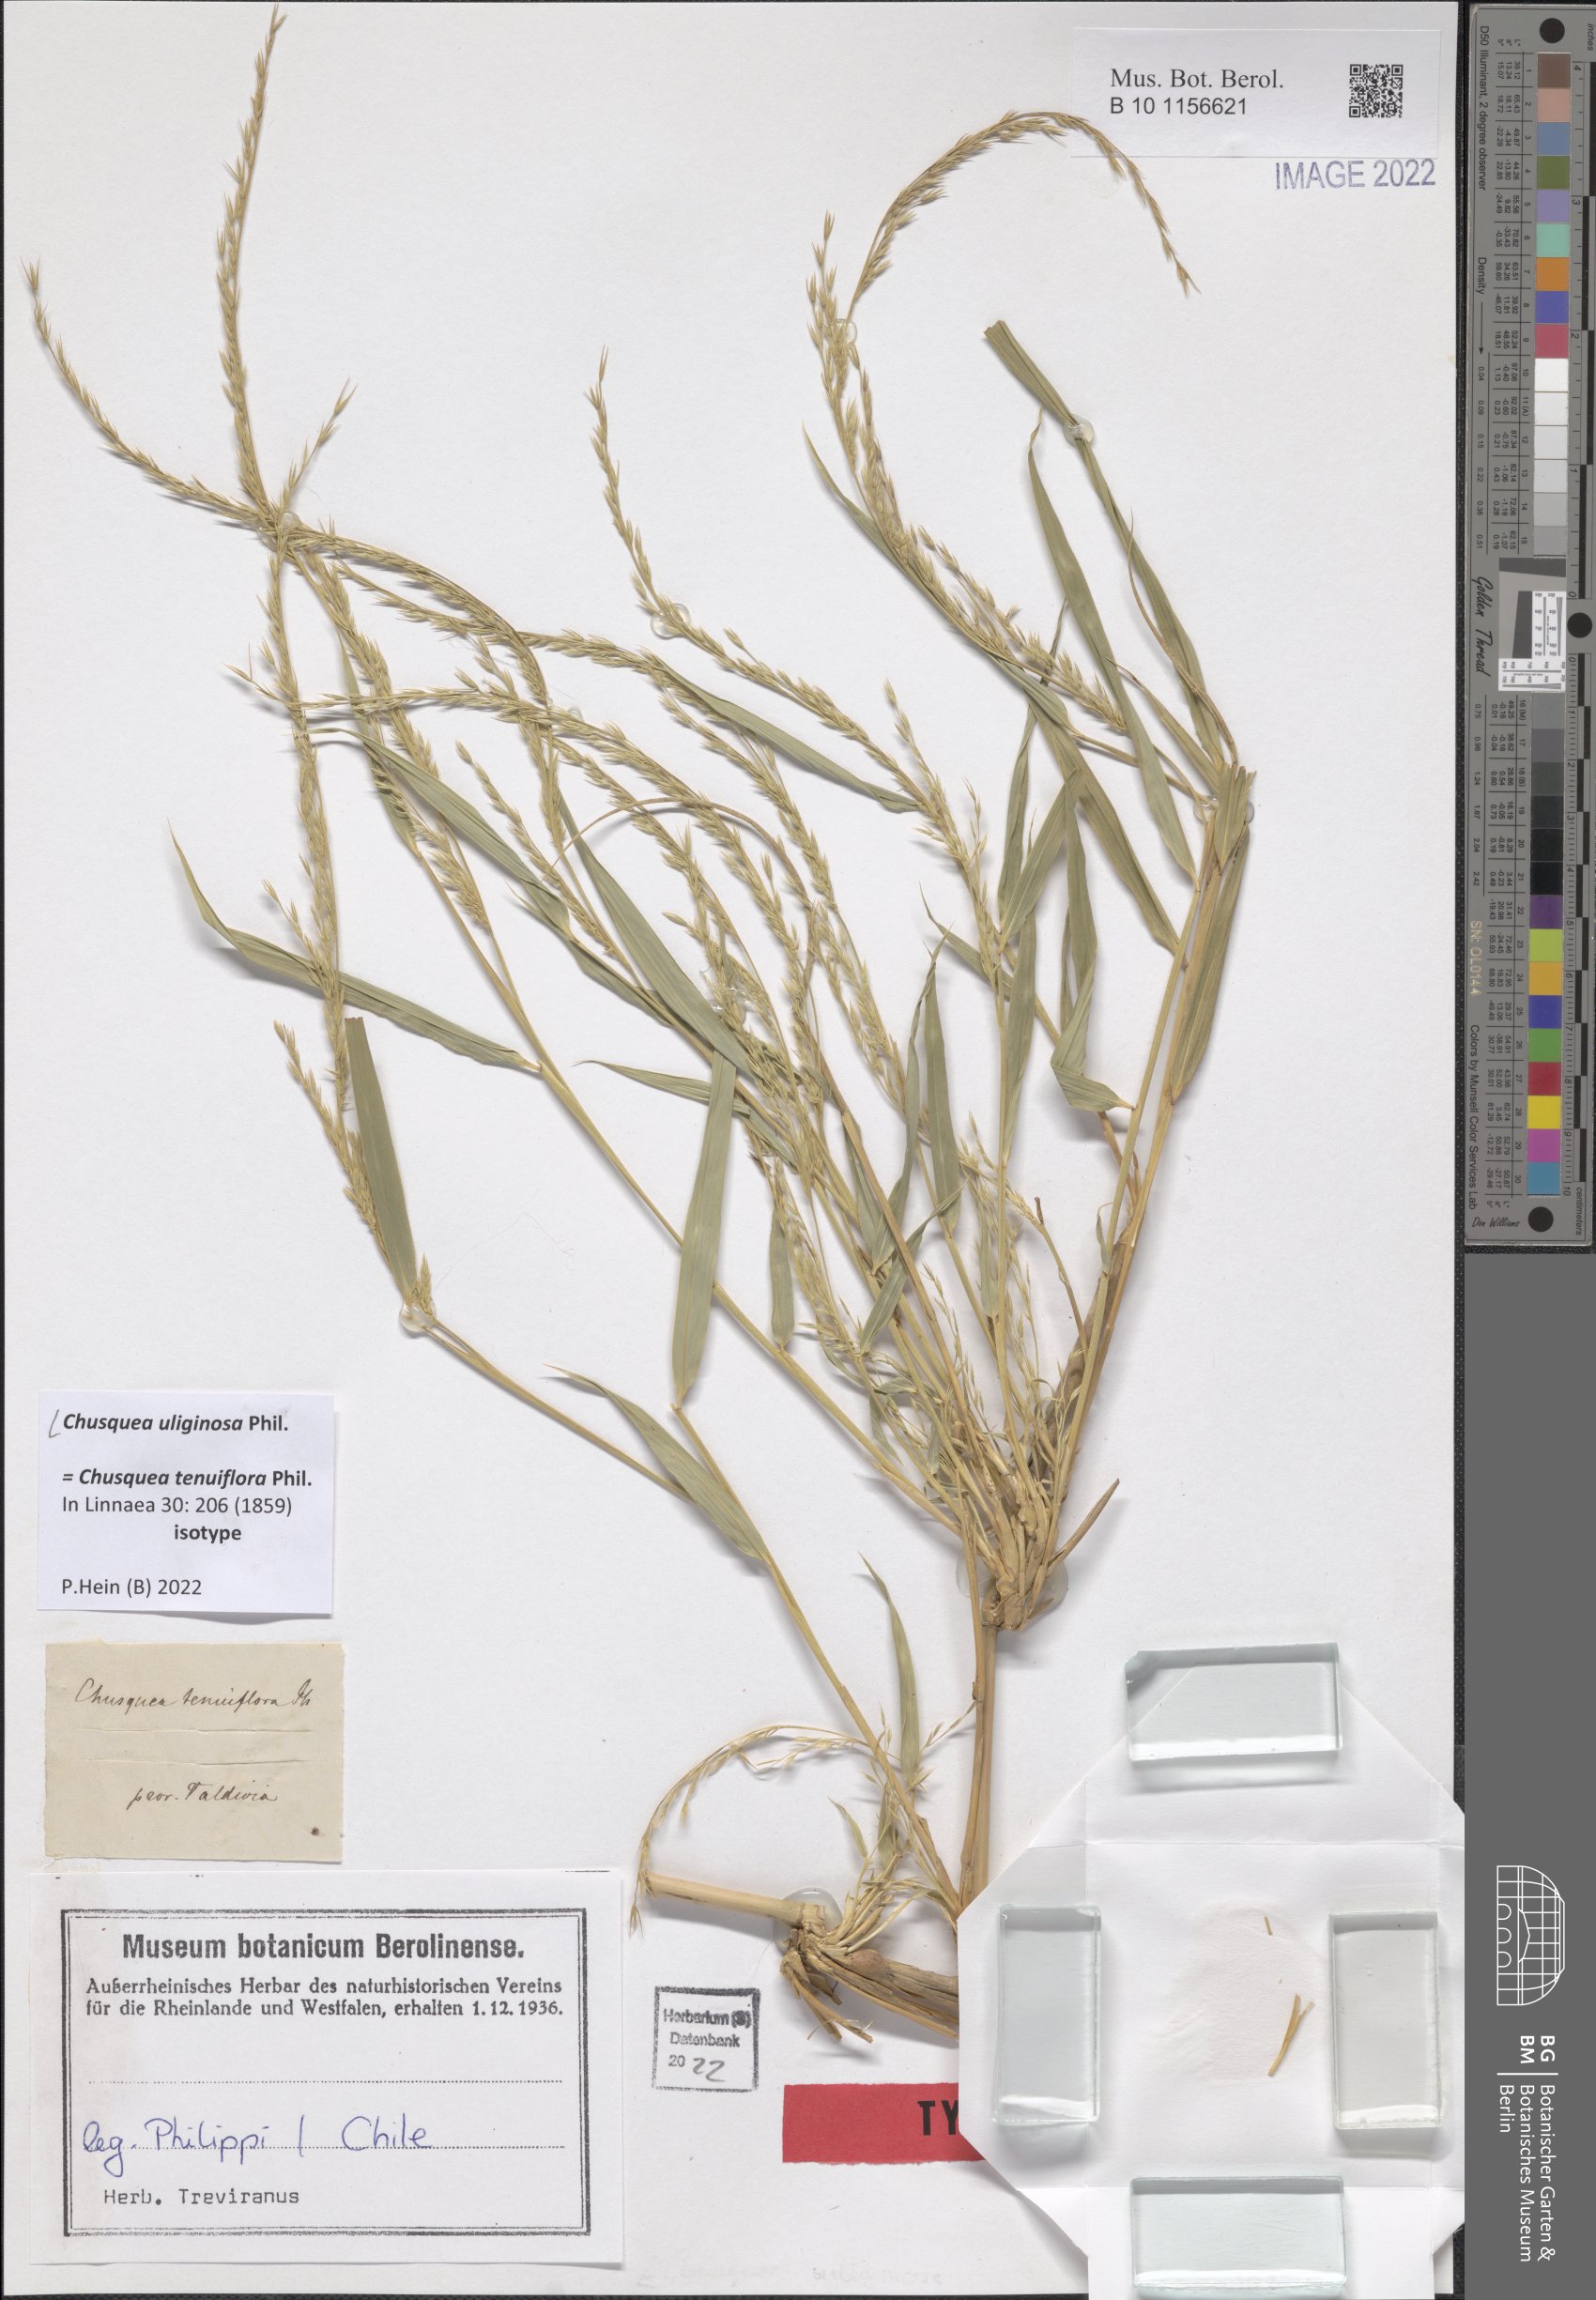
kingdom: Plantae
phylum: Tracheophyta
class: Liliopsida
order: Poales
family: Poaceae
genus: Chusquea
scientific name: Chusquea uliginosa
